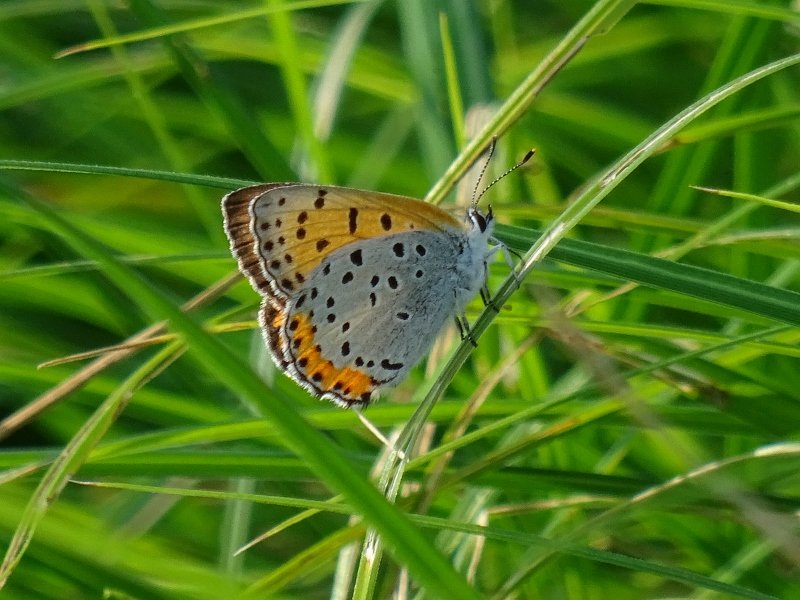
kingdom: Animalia
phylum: Arthropoda
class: Insecta
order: Lepidoptera
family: Sesiidae
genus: Sesia
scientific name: Sesia Lycaena hyllus
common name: Bronze Copper
